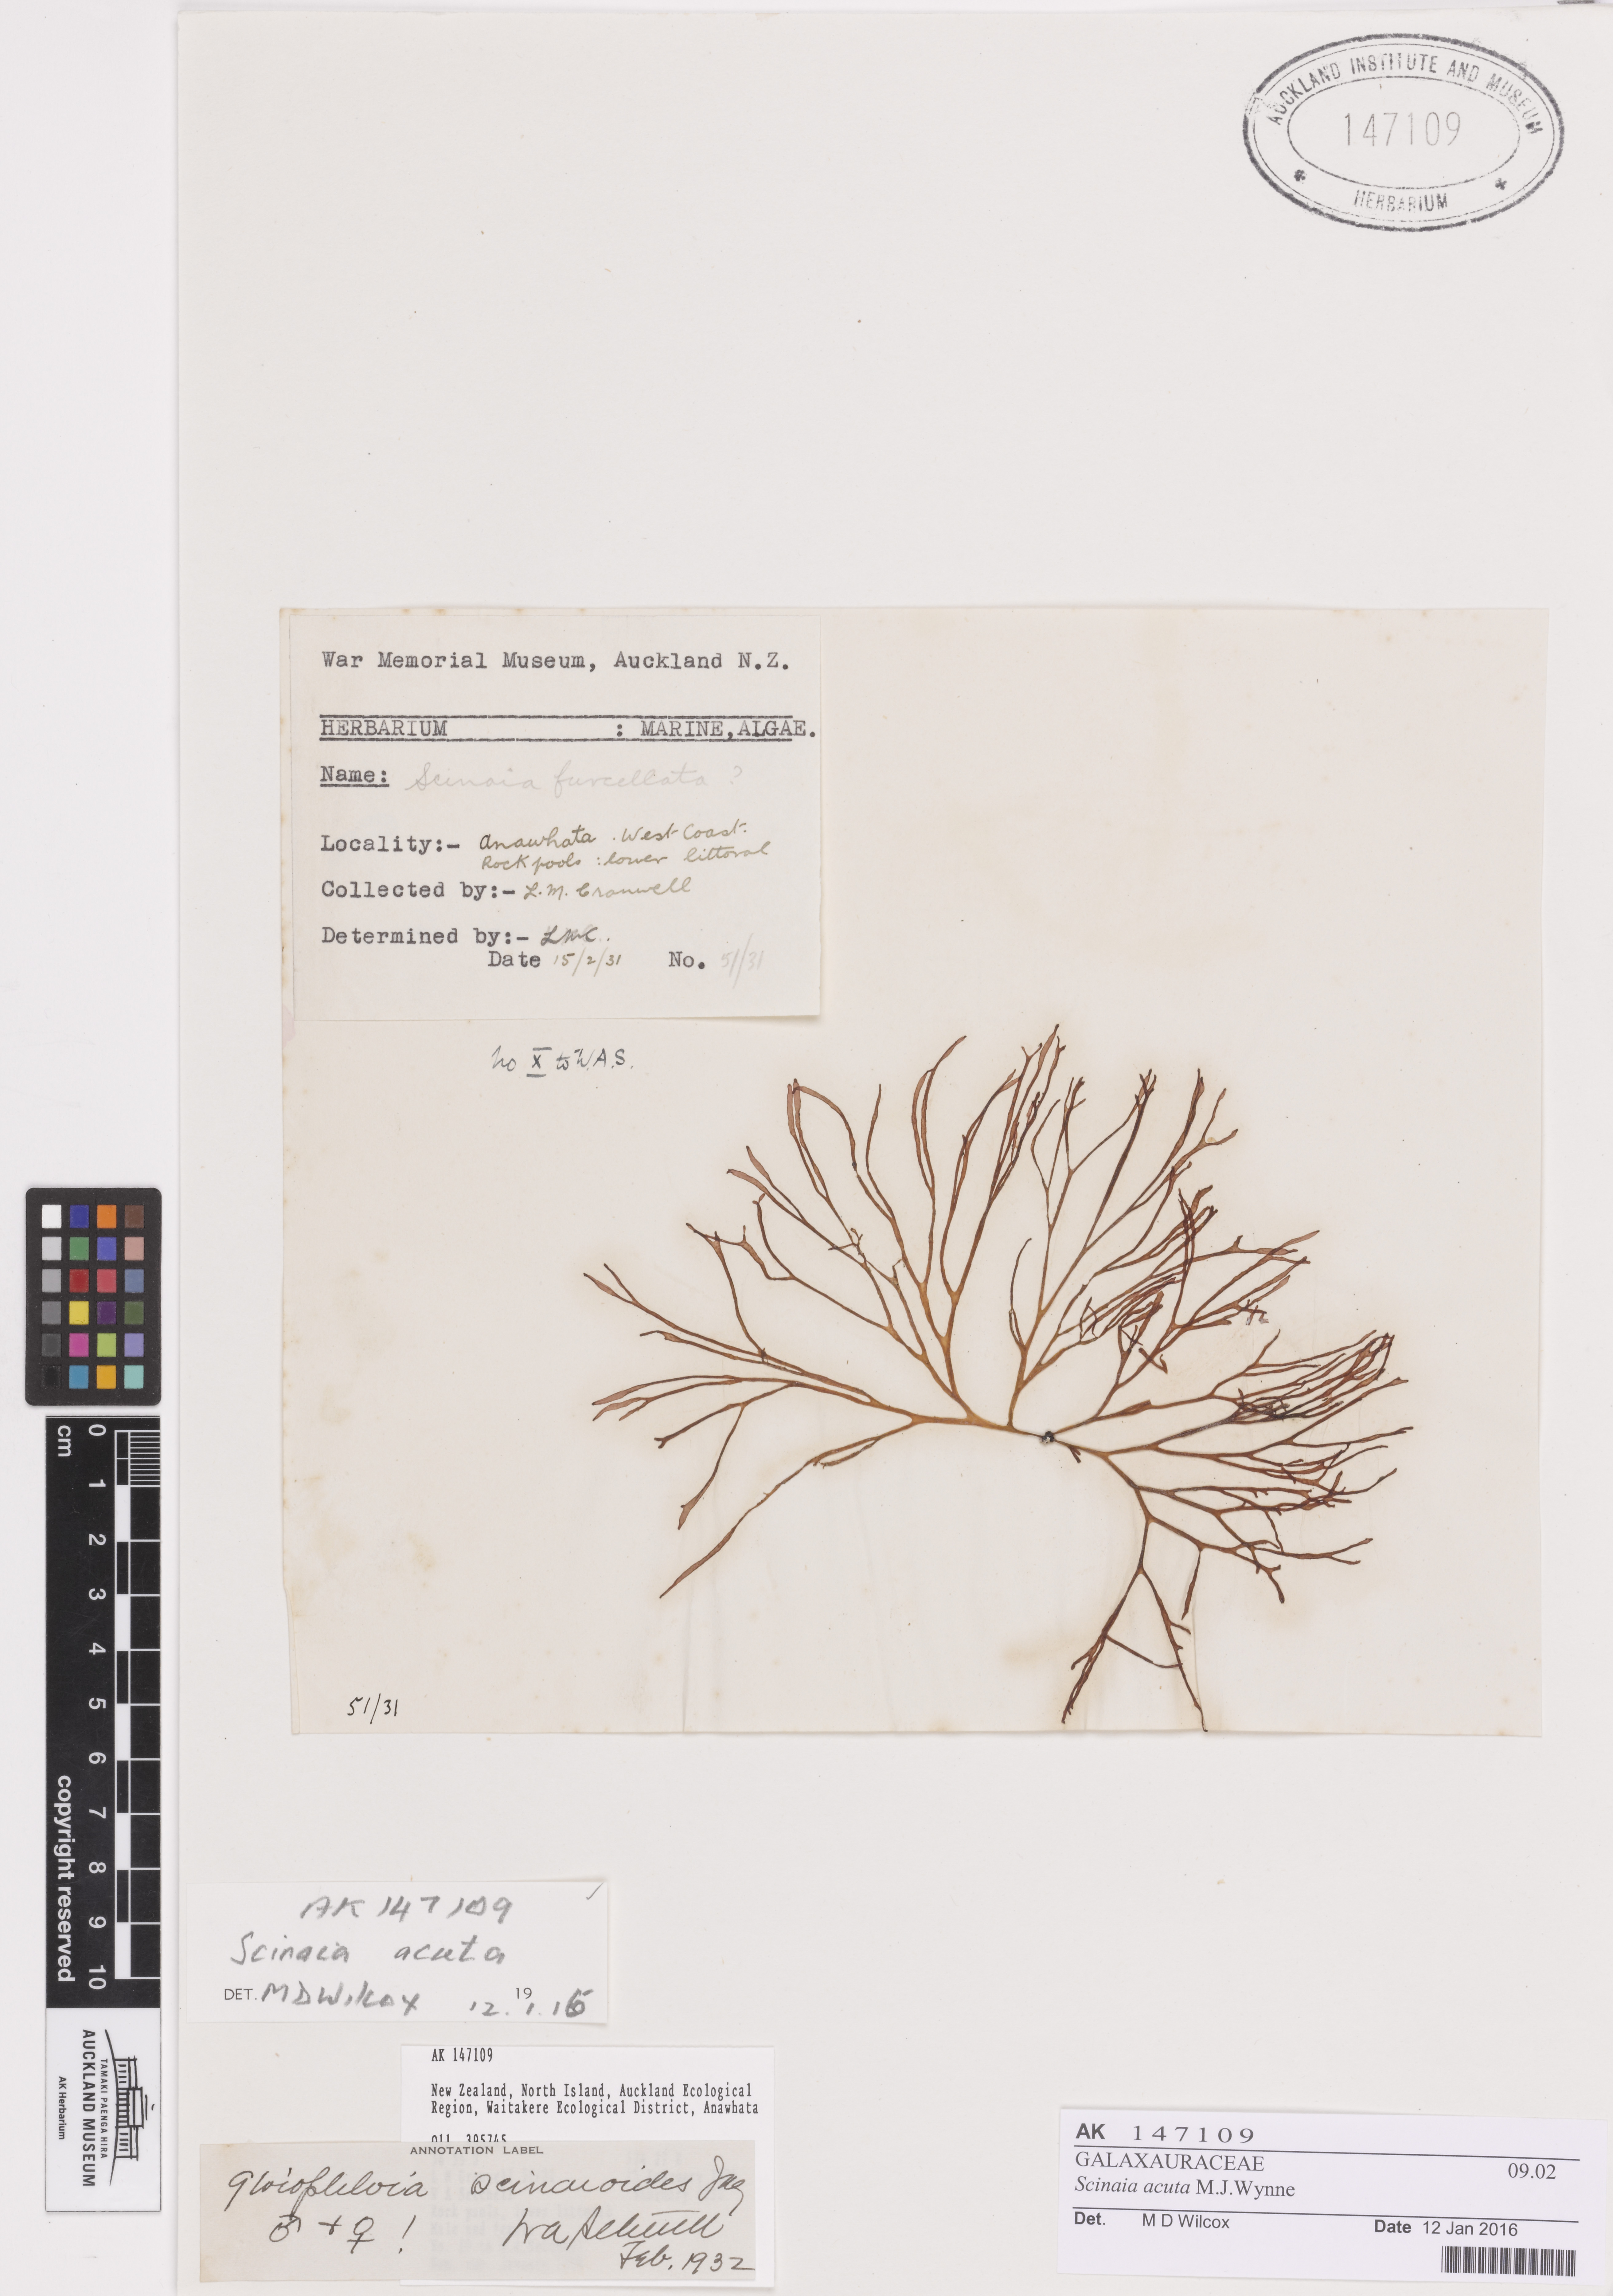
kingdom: Plantae
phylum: Rhodophyta
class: Florideophyceae
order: Nemaliales
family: Scinaiaceae
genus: Scinaia
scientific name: Scinaia acuta
